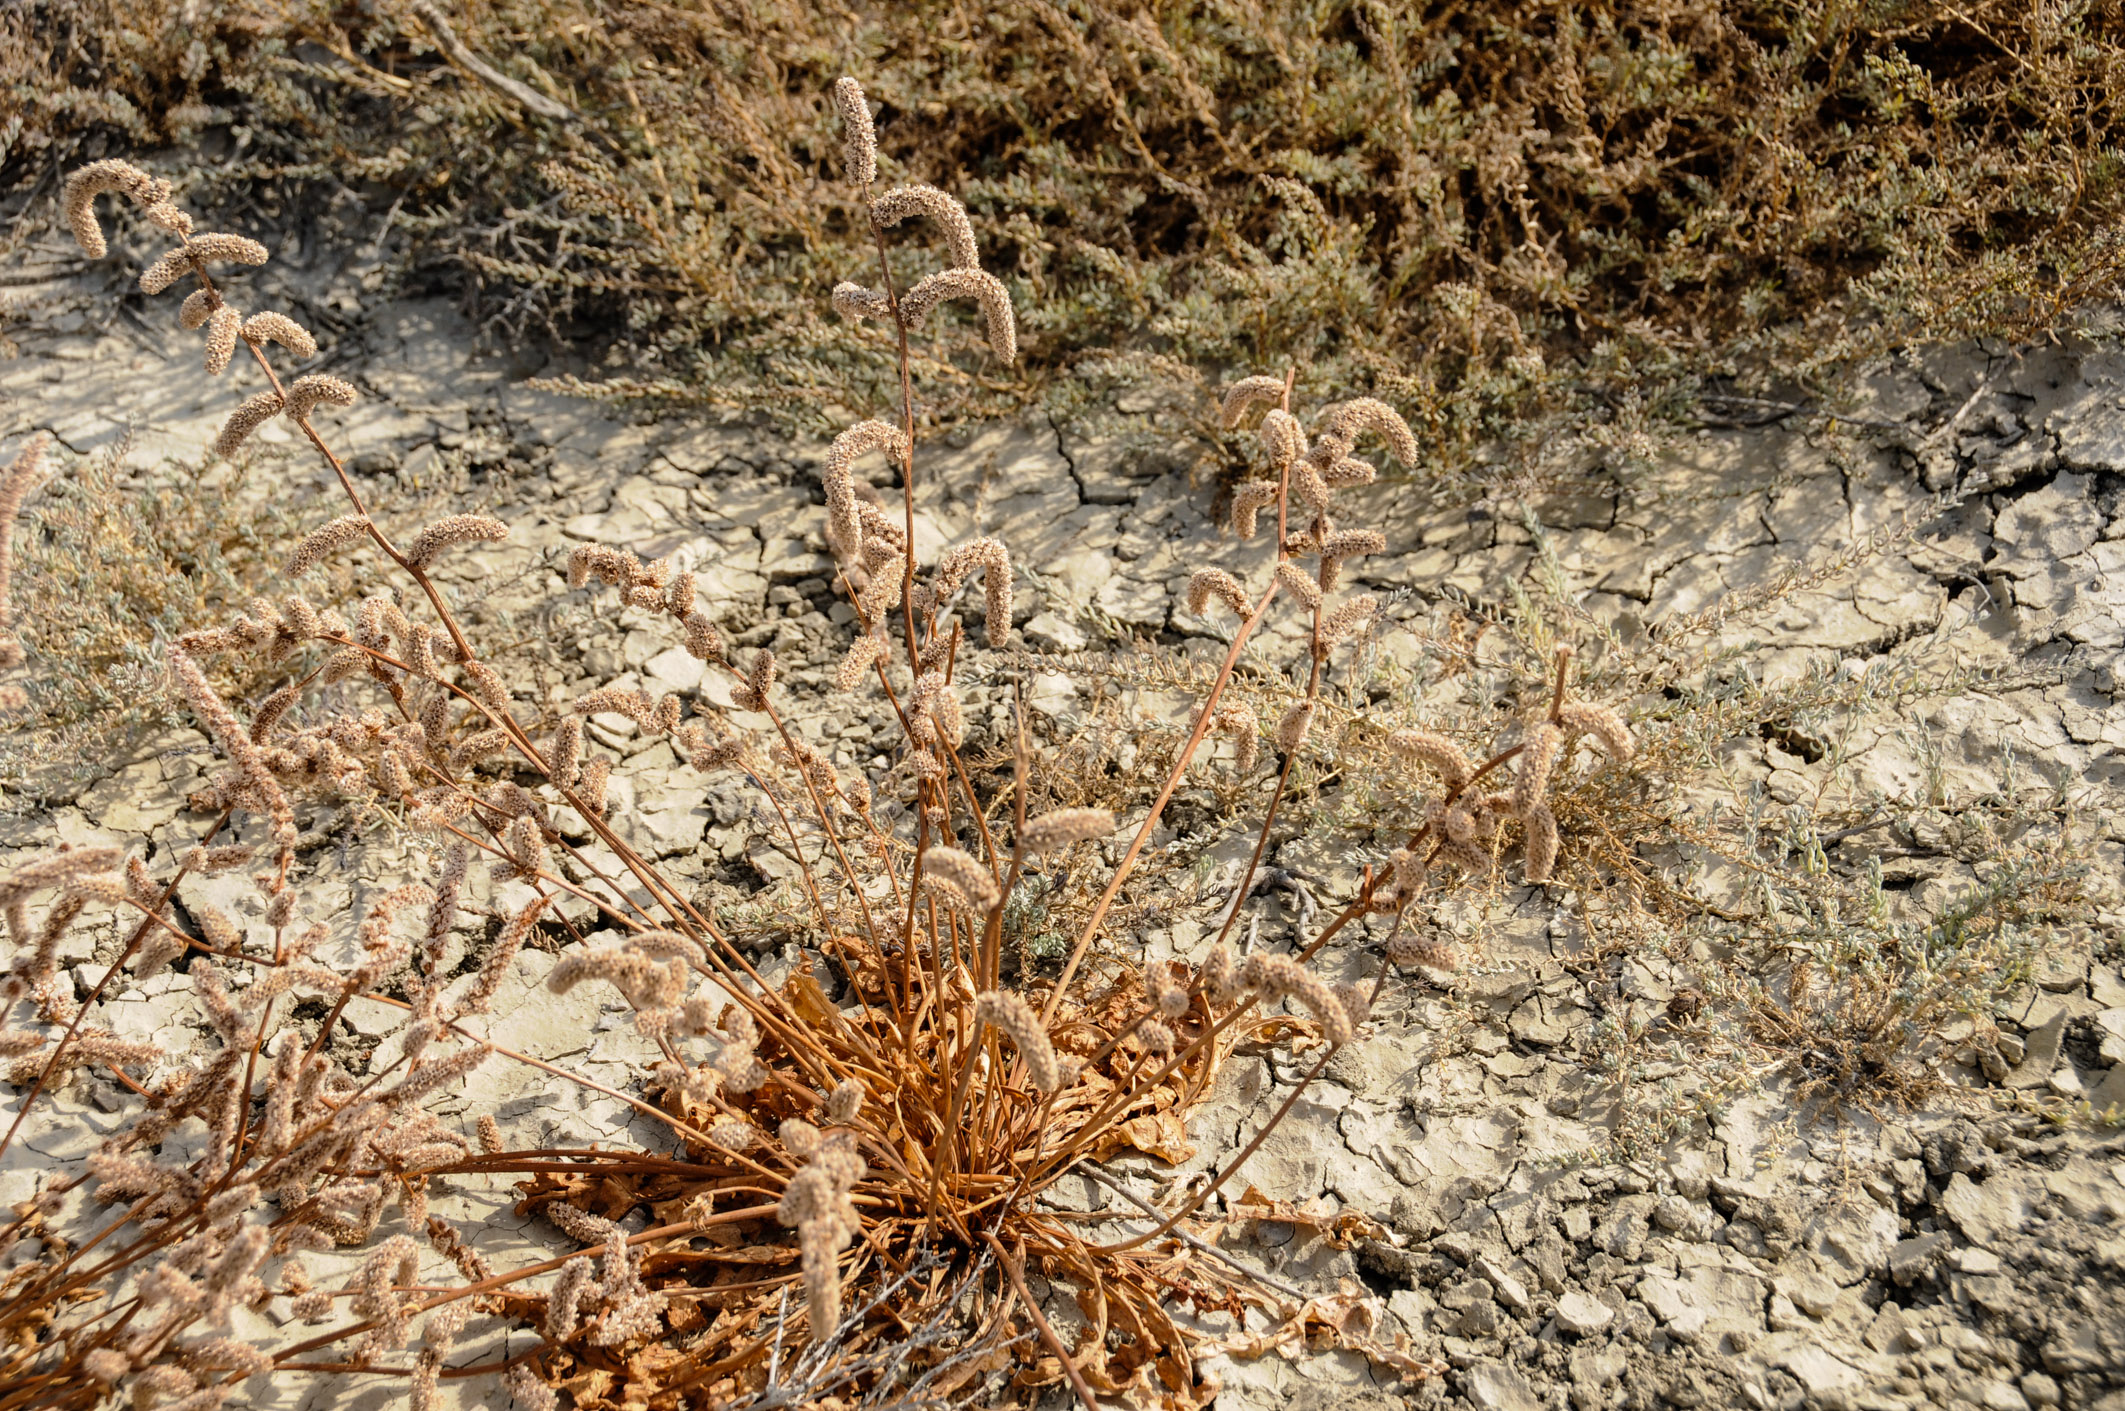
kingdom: Plantae
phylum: Tracheophyta
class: Magnoliopsida
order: Caryophyllales
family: Plumbaginaceae
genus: Psylliostachys
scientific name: Psylliostachys spicatus
